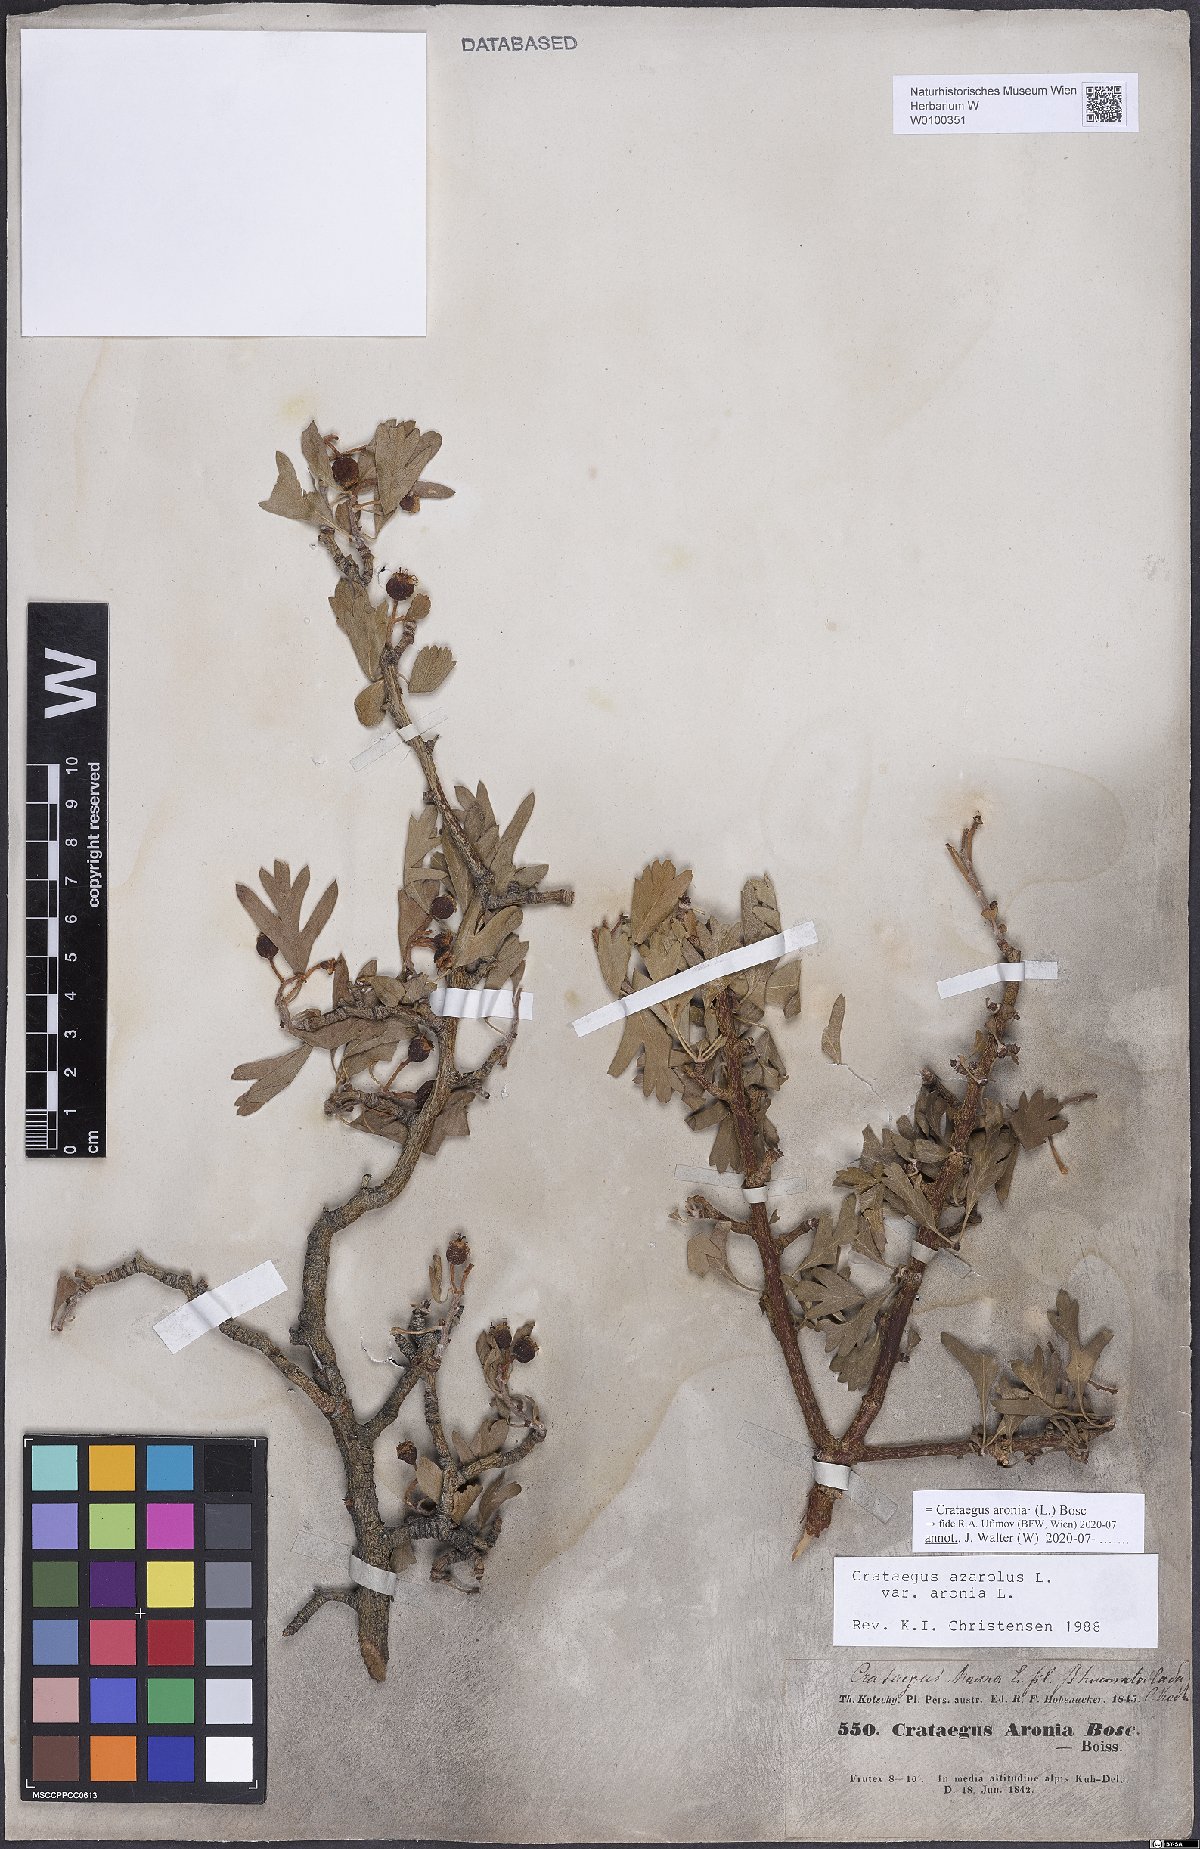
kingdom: Plantae
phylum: Tracheophyta
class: Magnoliopsida
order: Rosales
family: Rosaceae
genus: Crataegus
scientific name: Crataegus azarolus
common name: Azarole
